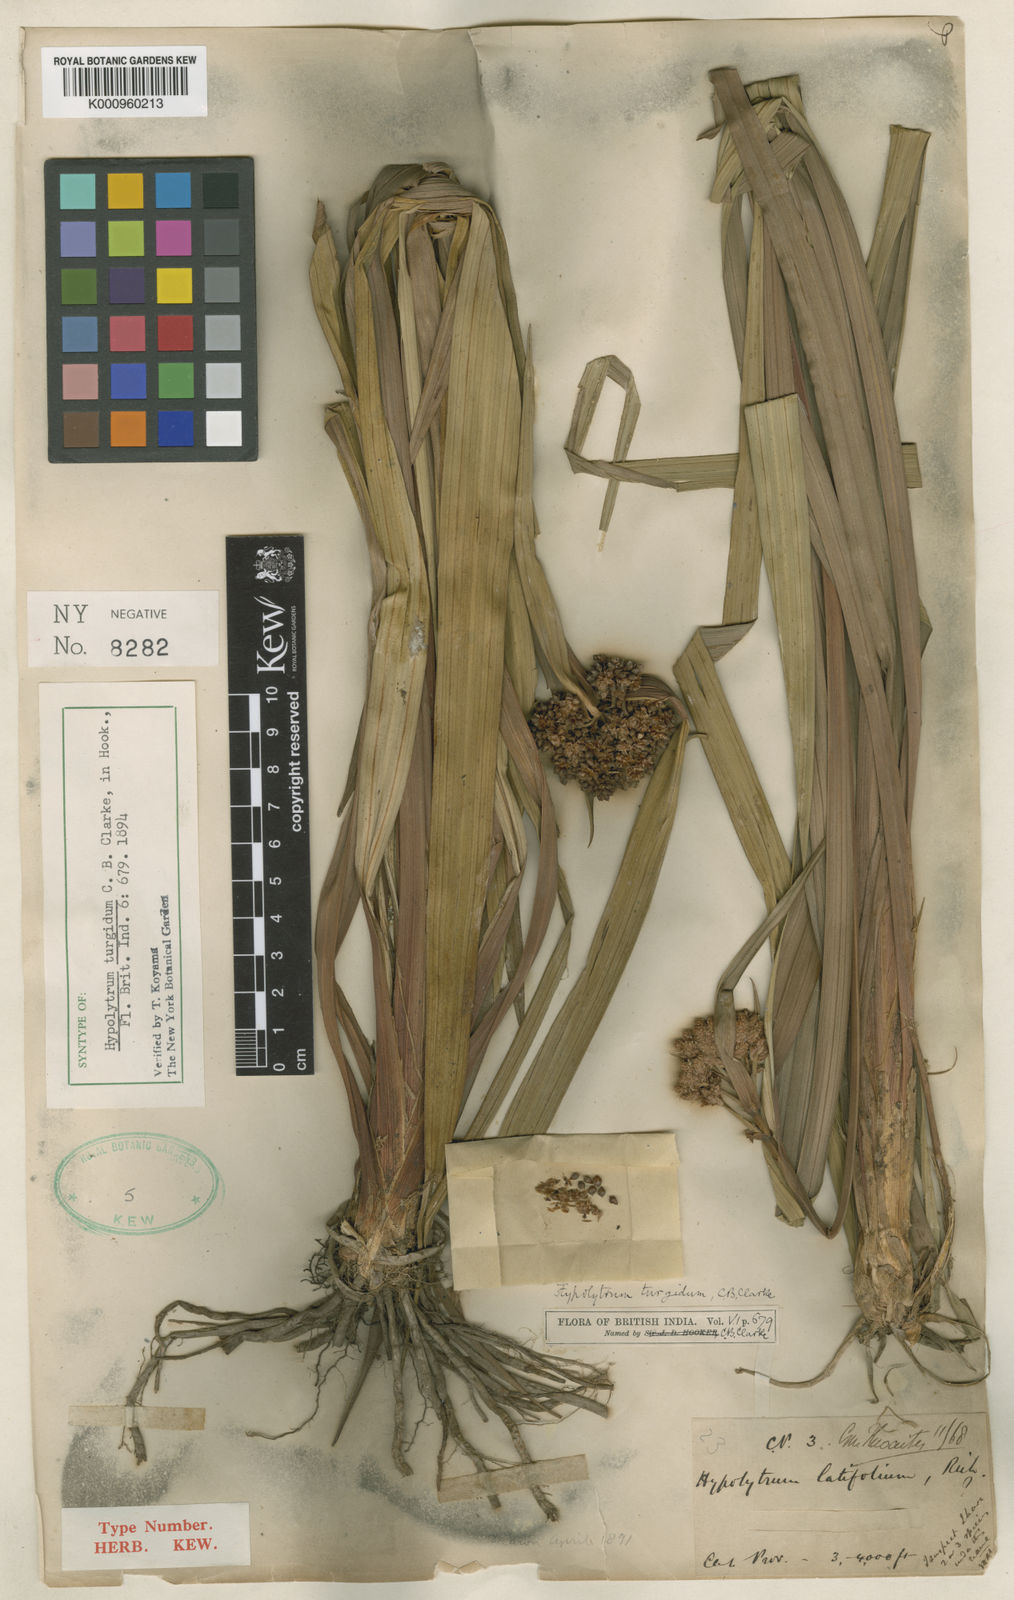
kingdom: Plantae
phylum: Tracheophyta
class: Liliopsida
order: Poales
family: Cyperaceae
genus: Hypolytrum
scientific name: Hypolytrum longirostre
